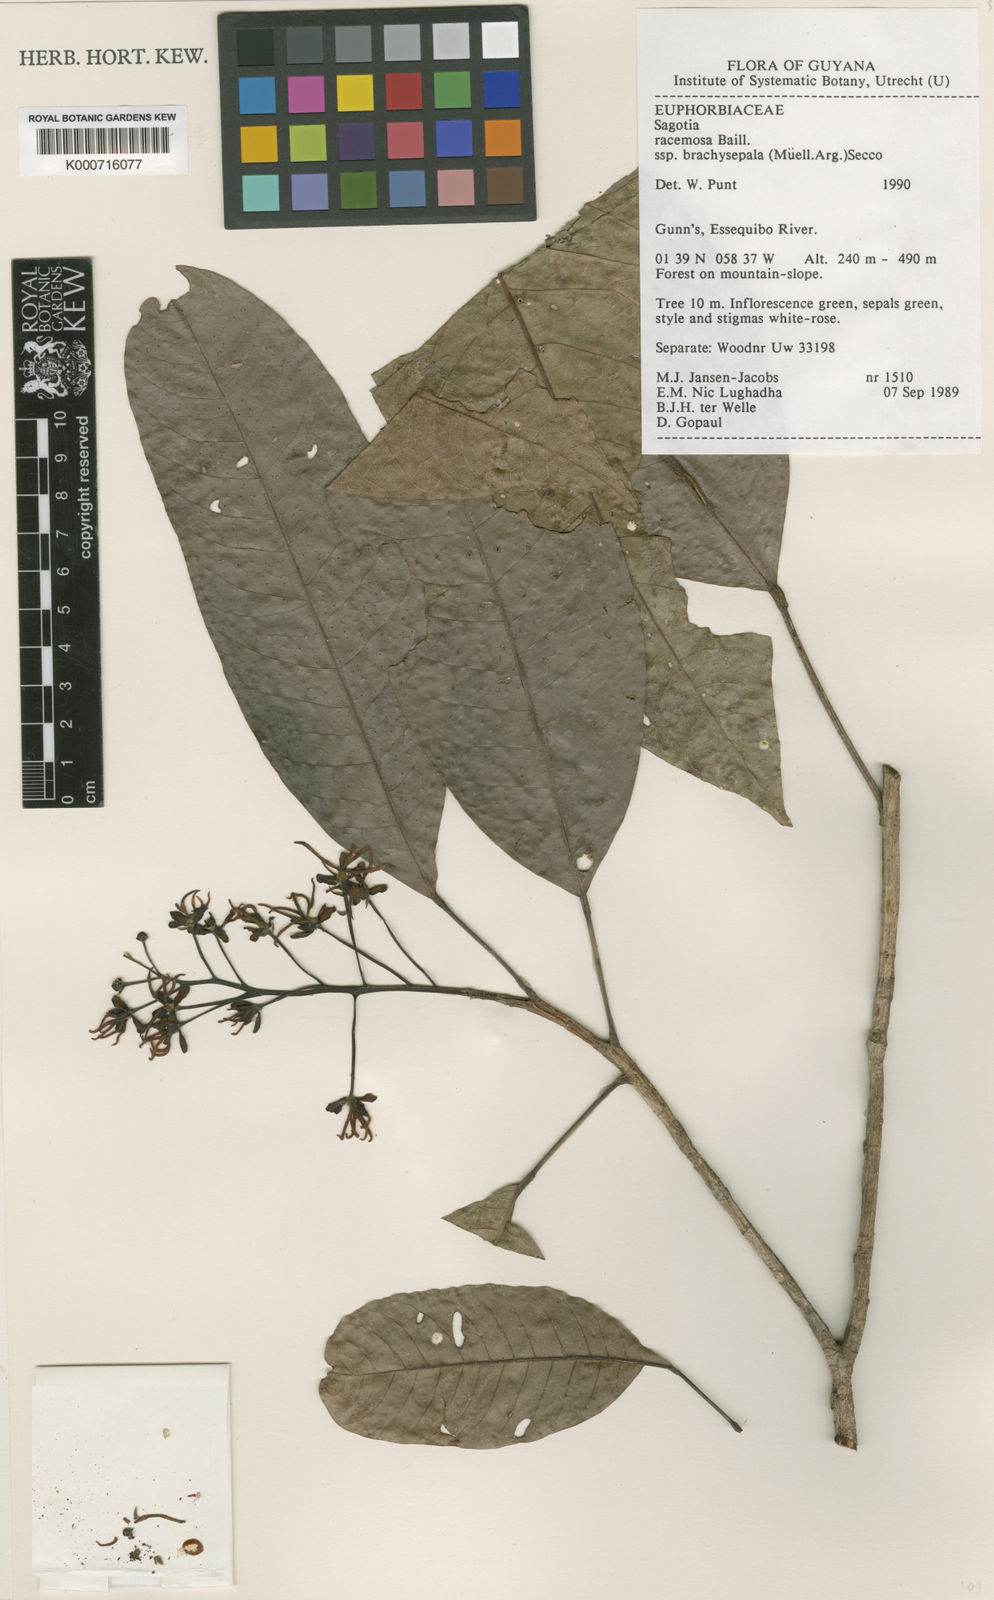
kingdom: Plantae
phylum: Tracheophyta
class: Magnoliopsida
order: Malpighiales
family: Euphorbiaceae
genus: Sagotia
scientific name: Sagotia
